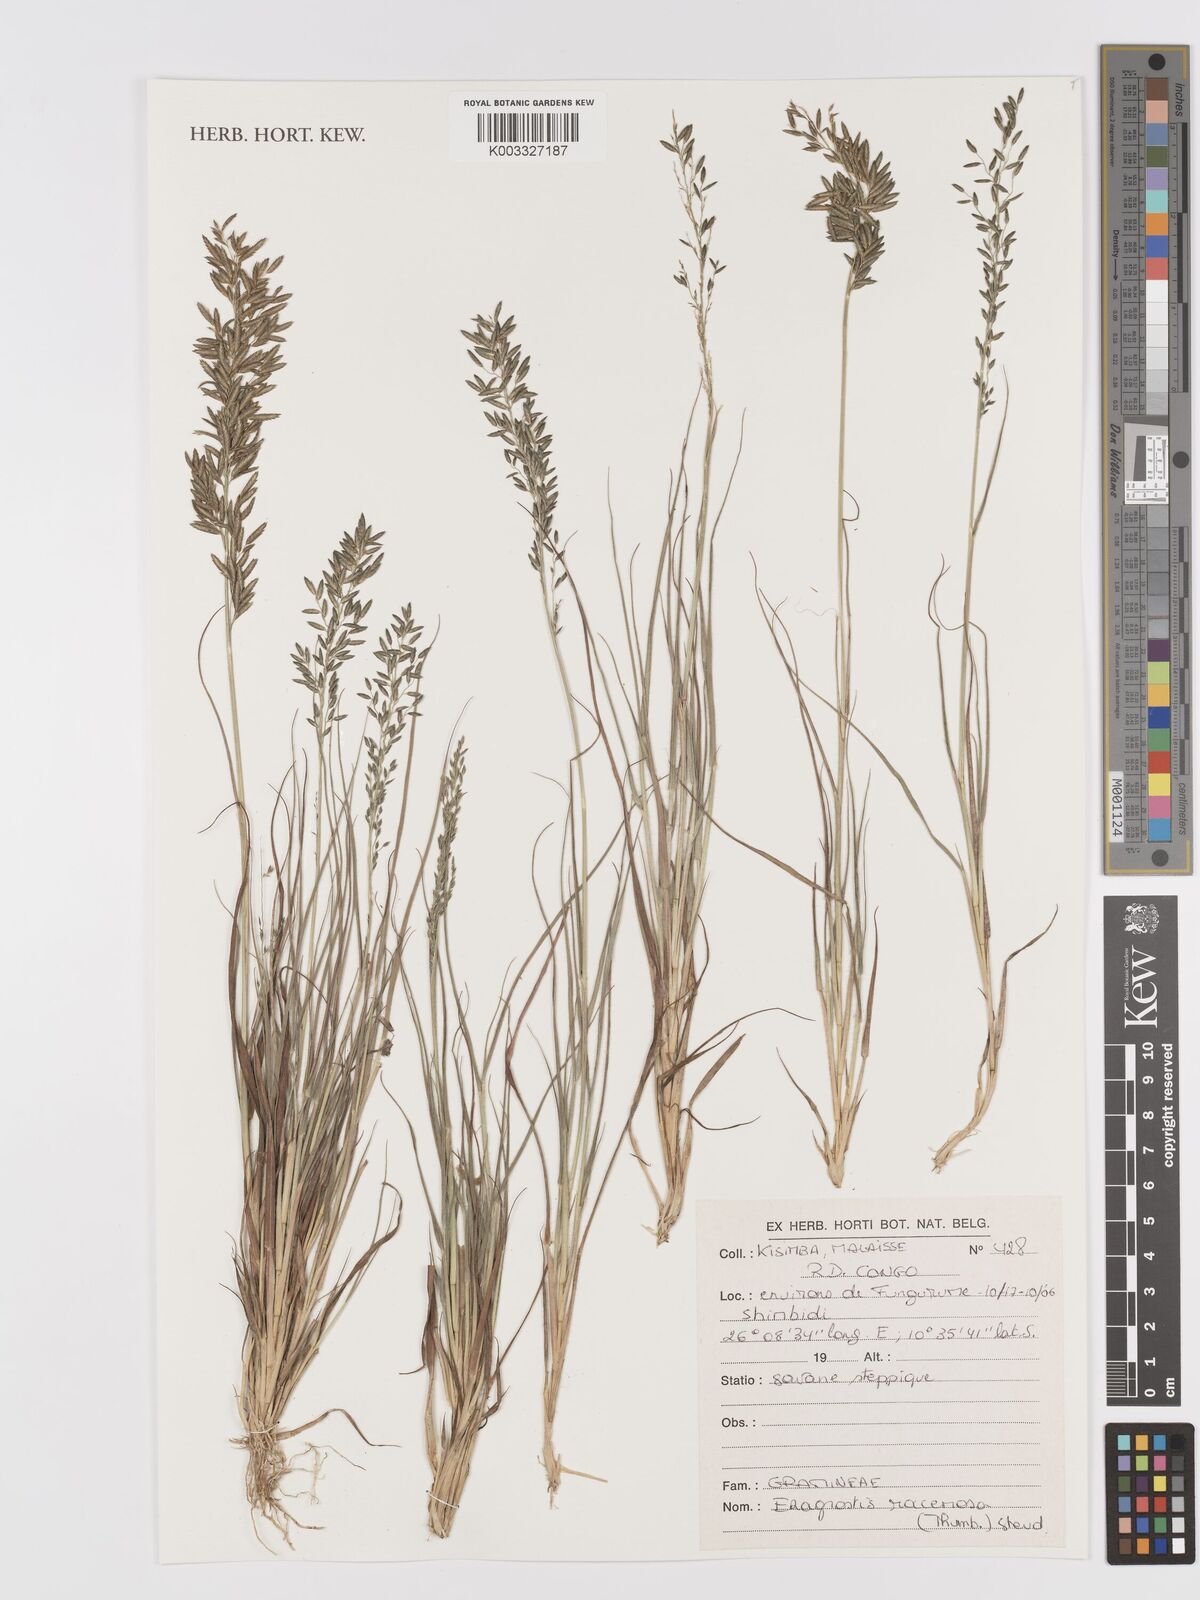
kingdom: Plantae
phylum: Tracheophyta
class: Liliopsida
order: Poales
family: Poaceae
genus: Eragrostis
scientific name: Eragrostis racemosa
